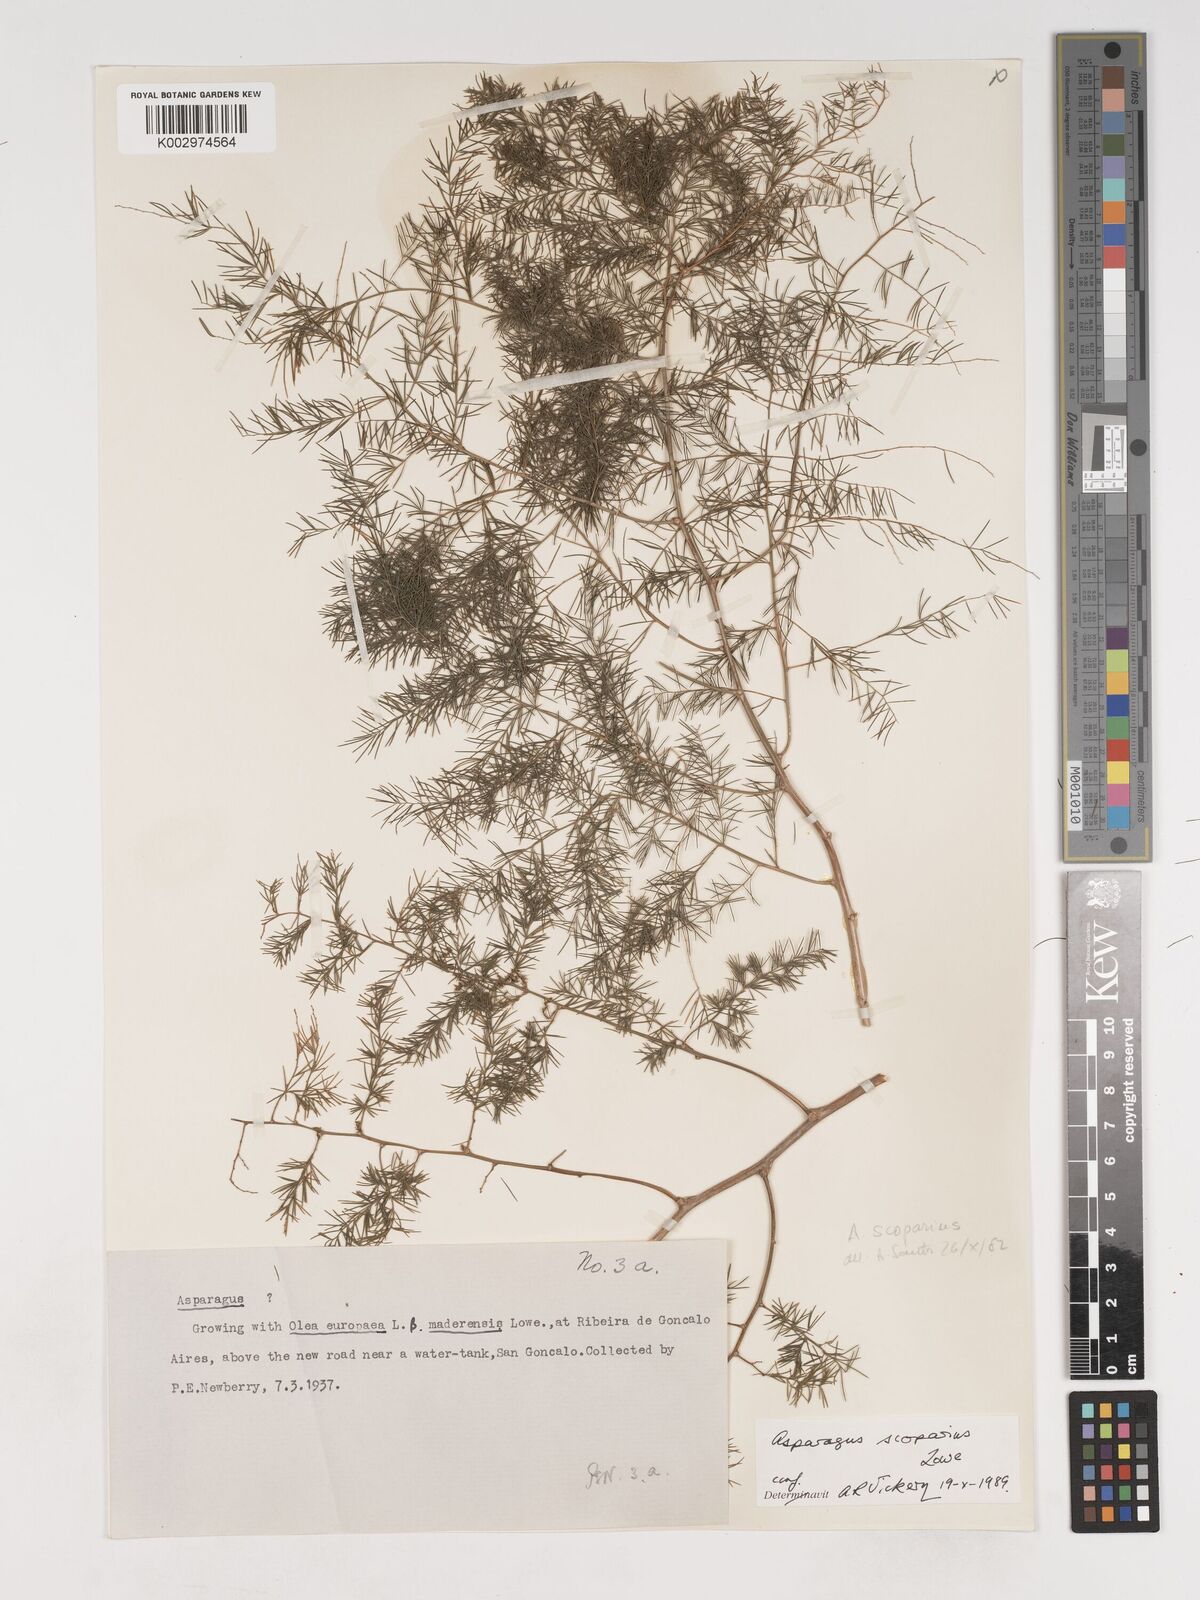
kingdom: Plantae
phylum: Tracheophyta
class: Liliopsida
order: Asparagales
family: Asparagaceae
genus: Asparagus
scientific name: Asparagus scoparius
